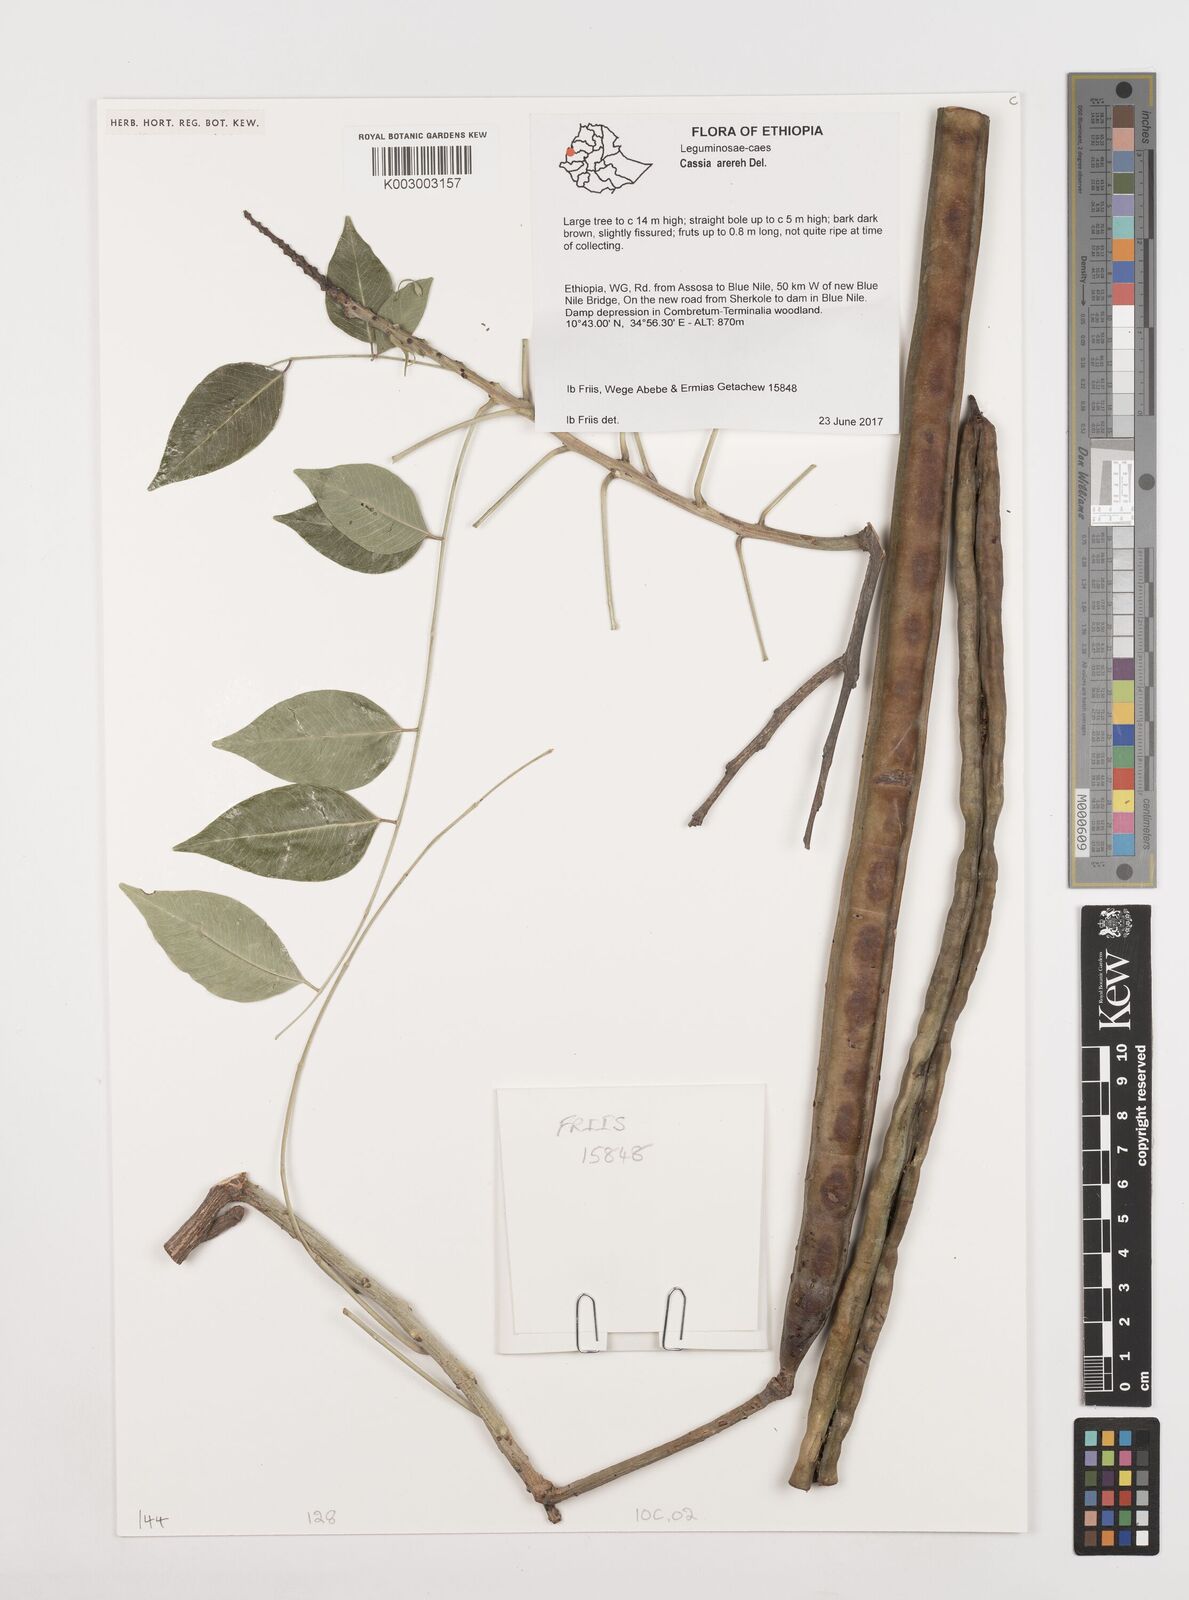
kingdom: Plantae
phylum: Tracheophyta
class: Magnoliopsida
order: Fabales
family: Fabaceae
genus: Cassia
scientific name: Cassia arereh
